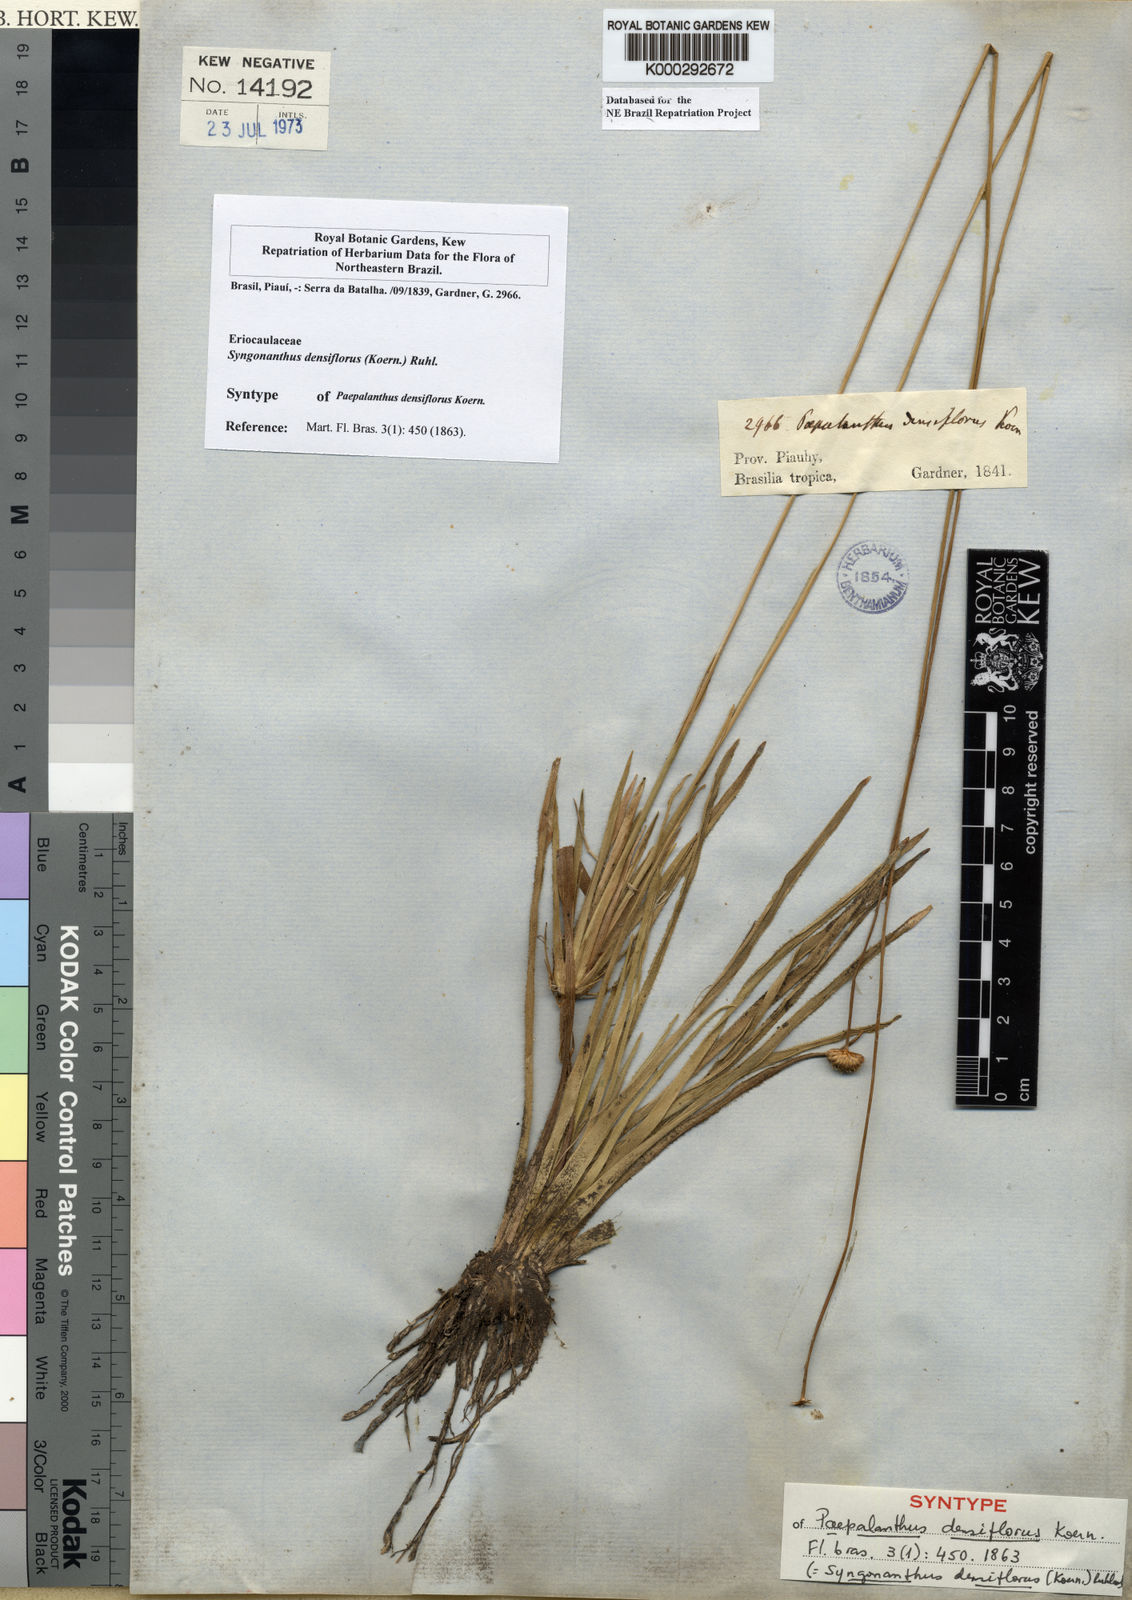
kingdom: Plantae
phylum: Tracheophyta
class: Liliopsida
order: Poales
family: Eriocaulaceae
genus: Syngonanthus
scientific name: Syngonanthus densiflorus
